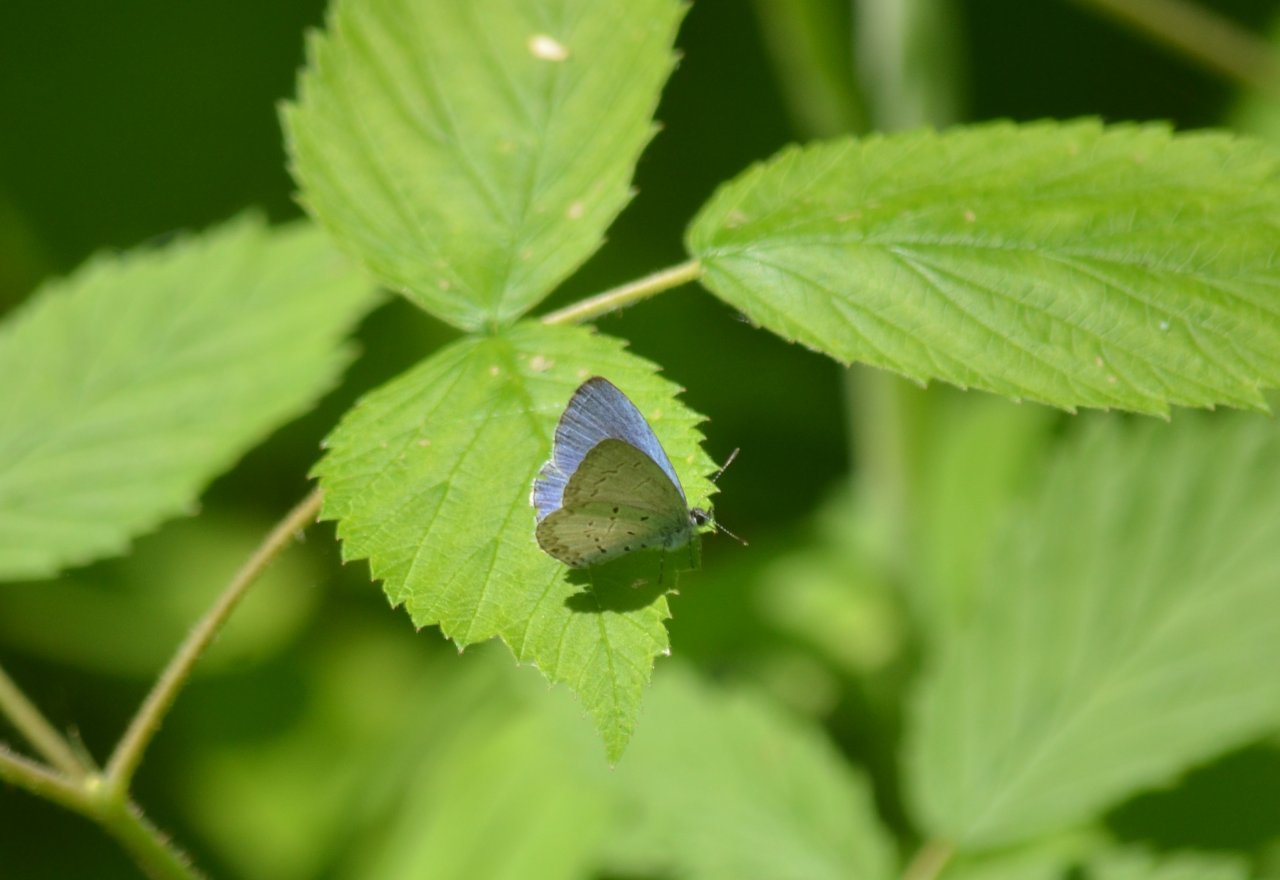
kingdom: Animalia
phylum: Arthropoda
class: Insecta
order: Lepidoptera
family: Lycaenidae
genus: Celastrina
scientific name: Celastrina lucia
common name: Northern Spring Azure
